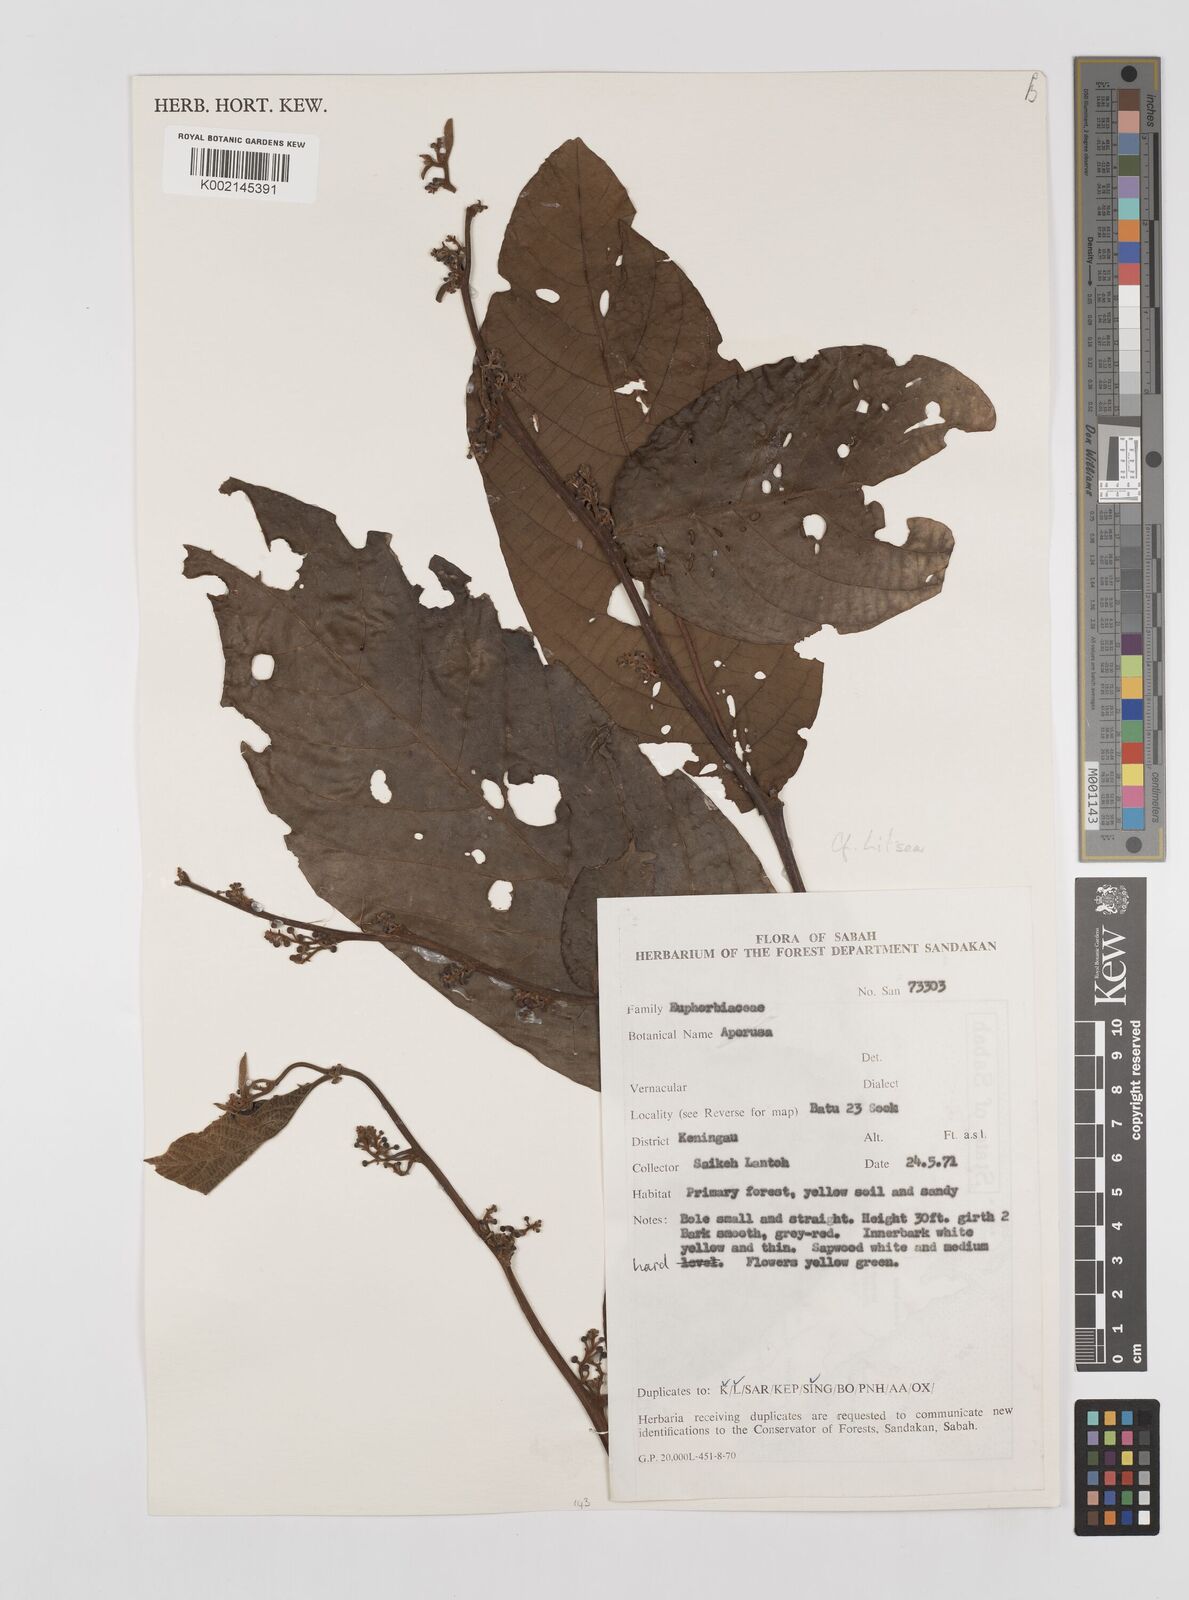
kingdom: Plantae
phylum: Tracheophyta
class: Magnoliopsida
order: Laurales
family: Lauraceae
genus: Litsea
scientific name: Litsea
